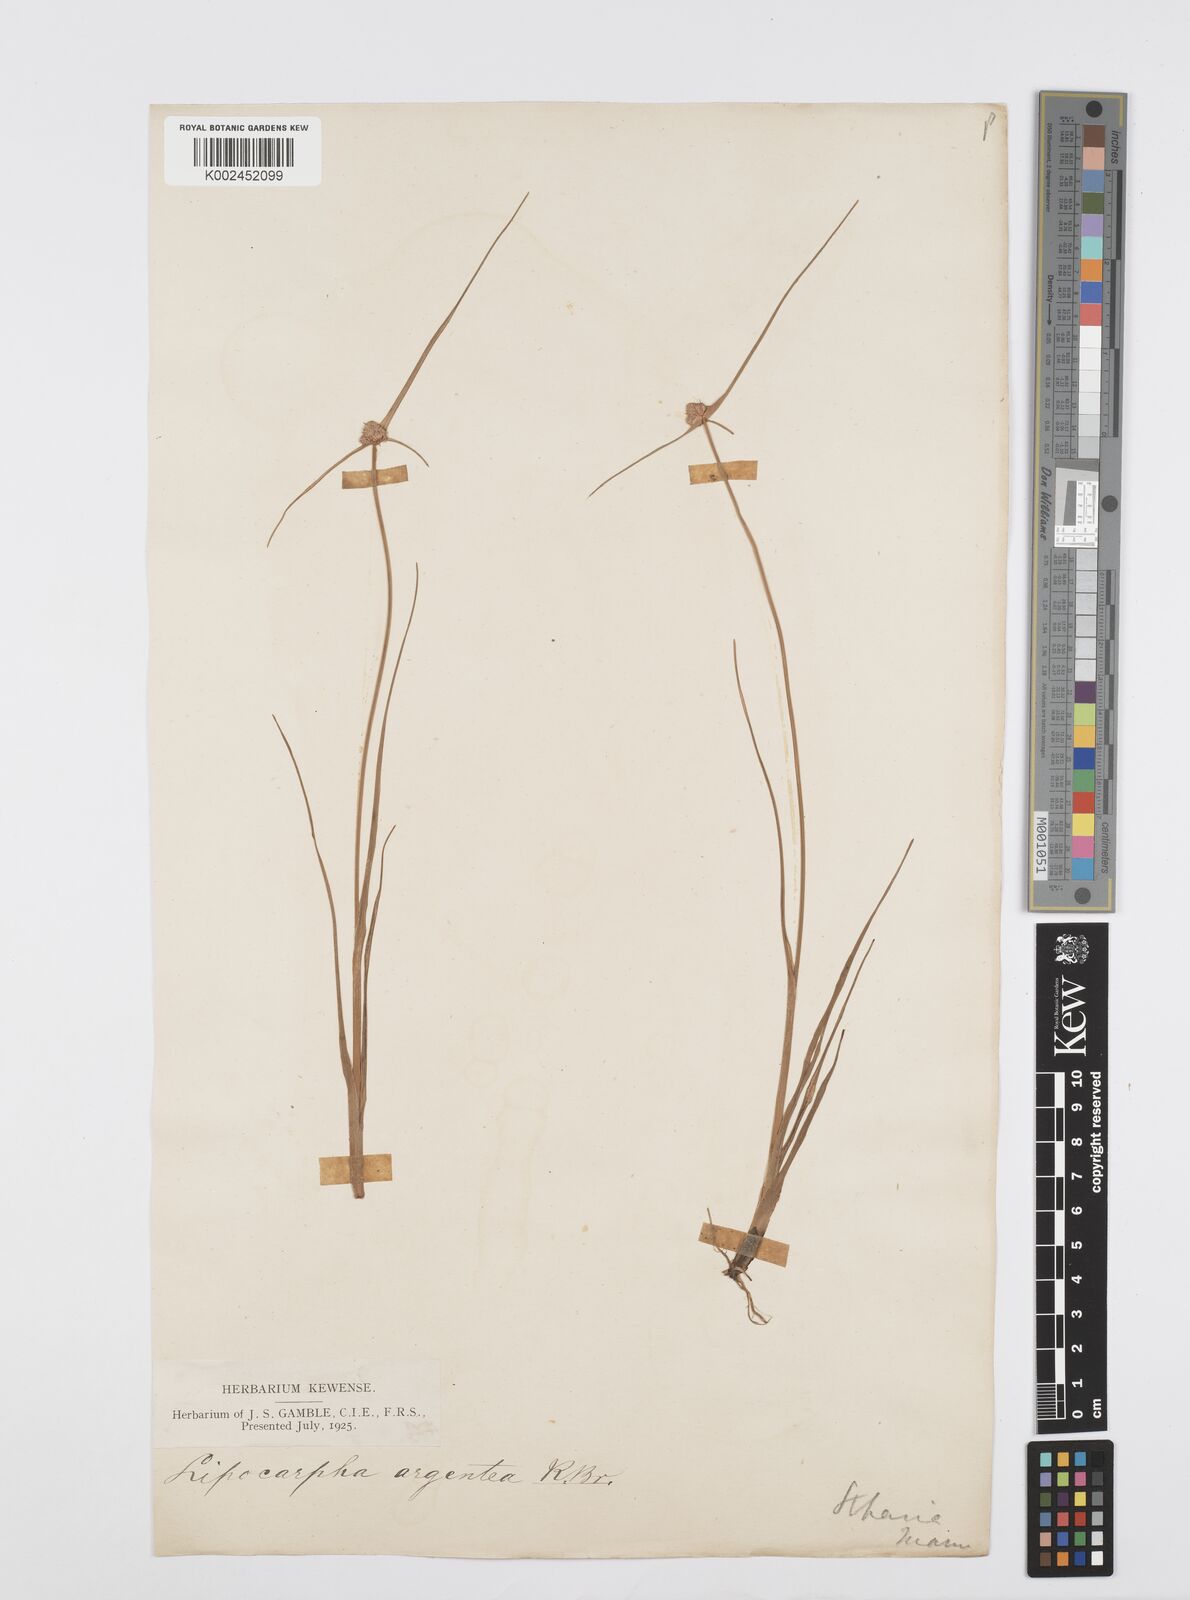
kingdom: Plantae
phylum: Tracheophyta
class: Liliopsida
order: Poales
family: Cyperaceae
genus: Cyperus
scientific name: Cyperus
